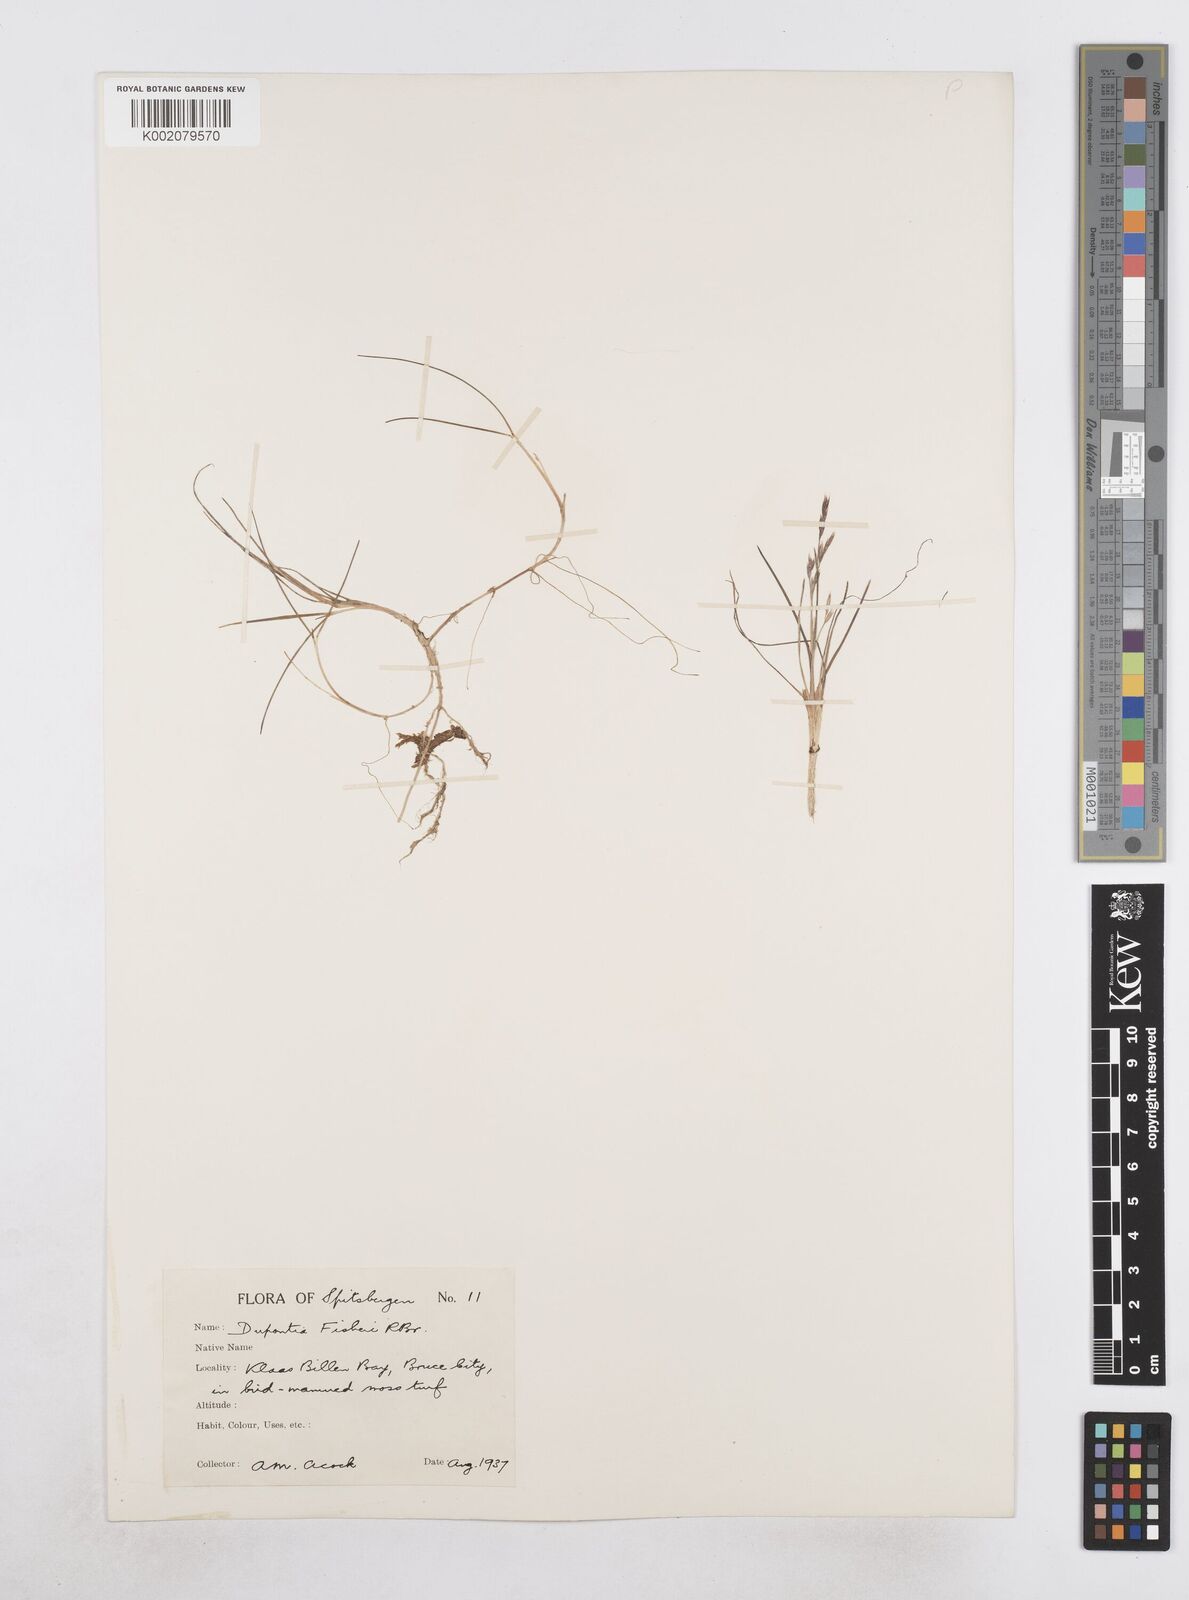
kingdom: Plantae
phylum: Tracheophyta
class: Liliopsida
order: Poales
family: Poaceae
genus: Dupontia
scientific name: Dupontia fisheri
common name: Tundra grass
